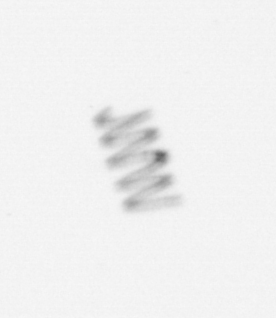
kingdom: Chromista
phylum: Ochrophyta
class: Bacillariophyceae
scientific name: Bacillariophyceae
